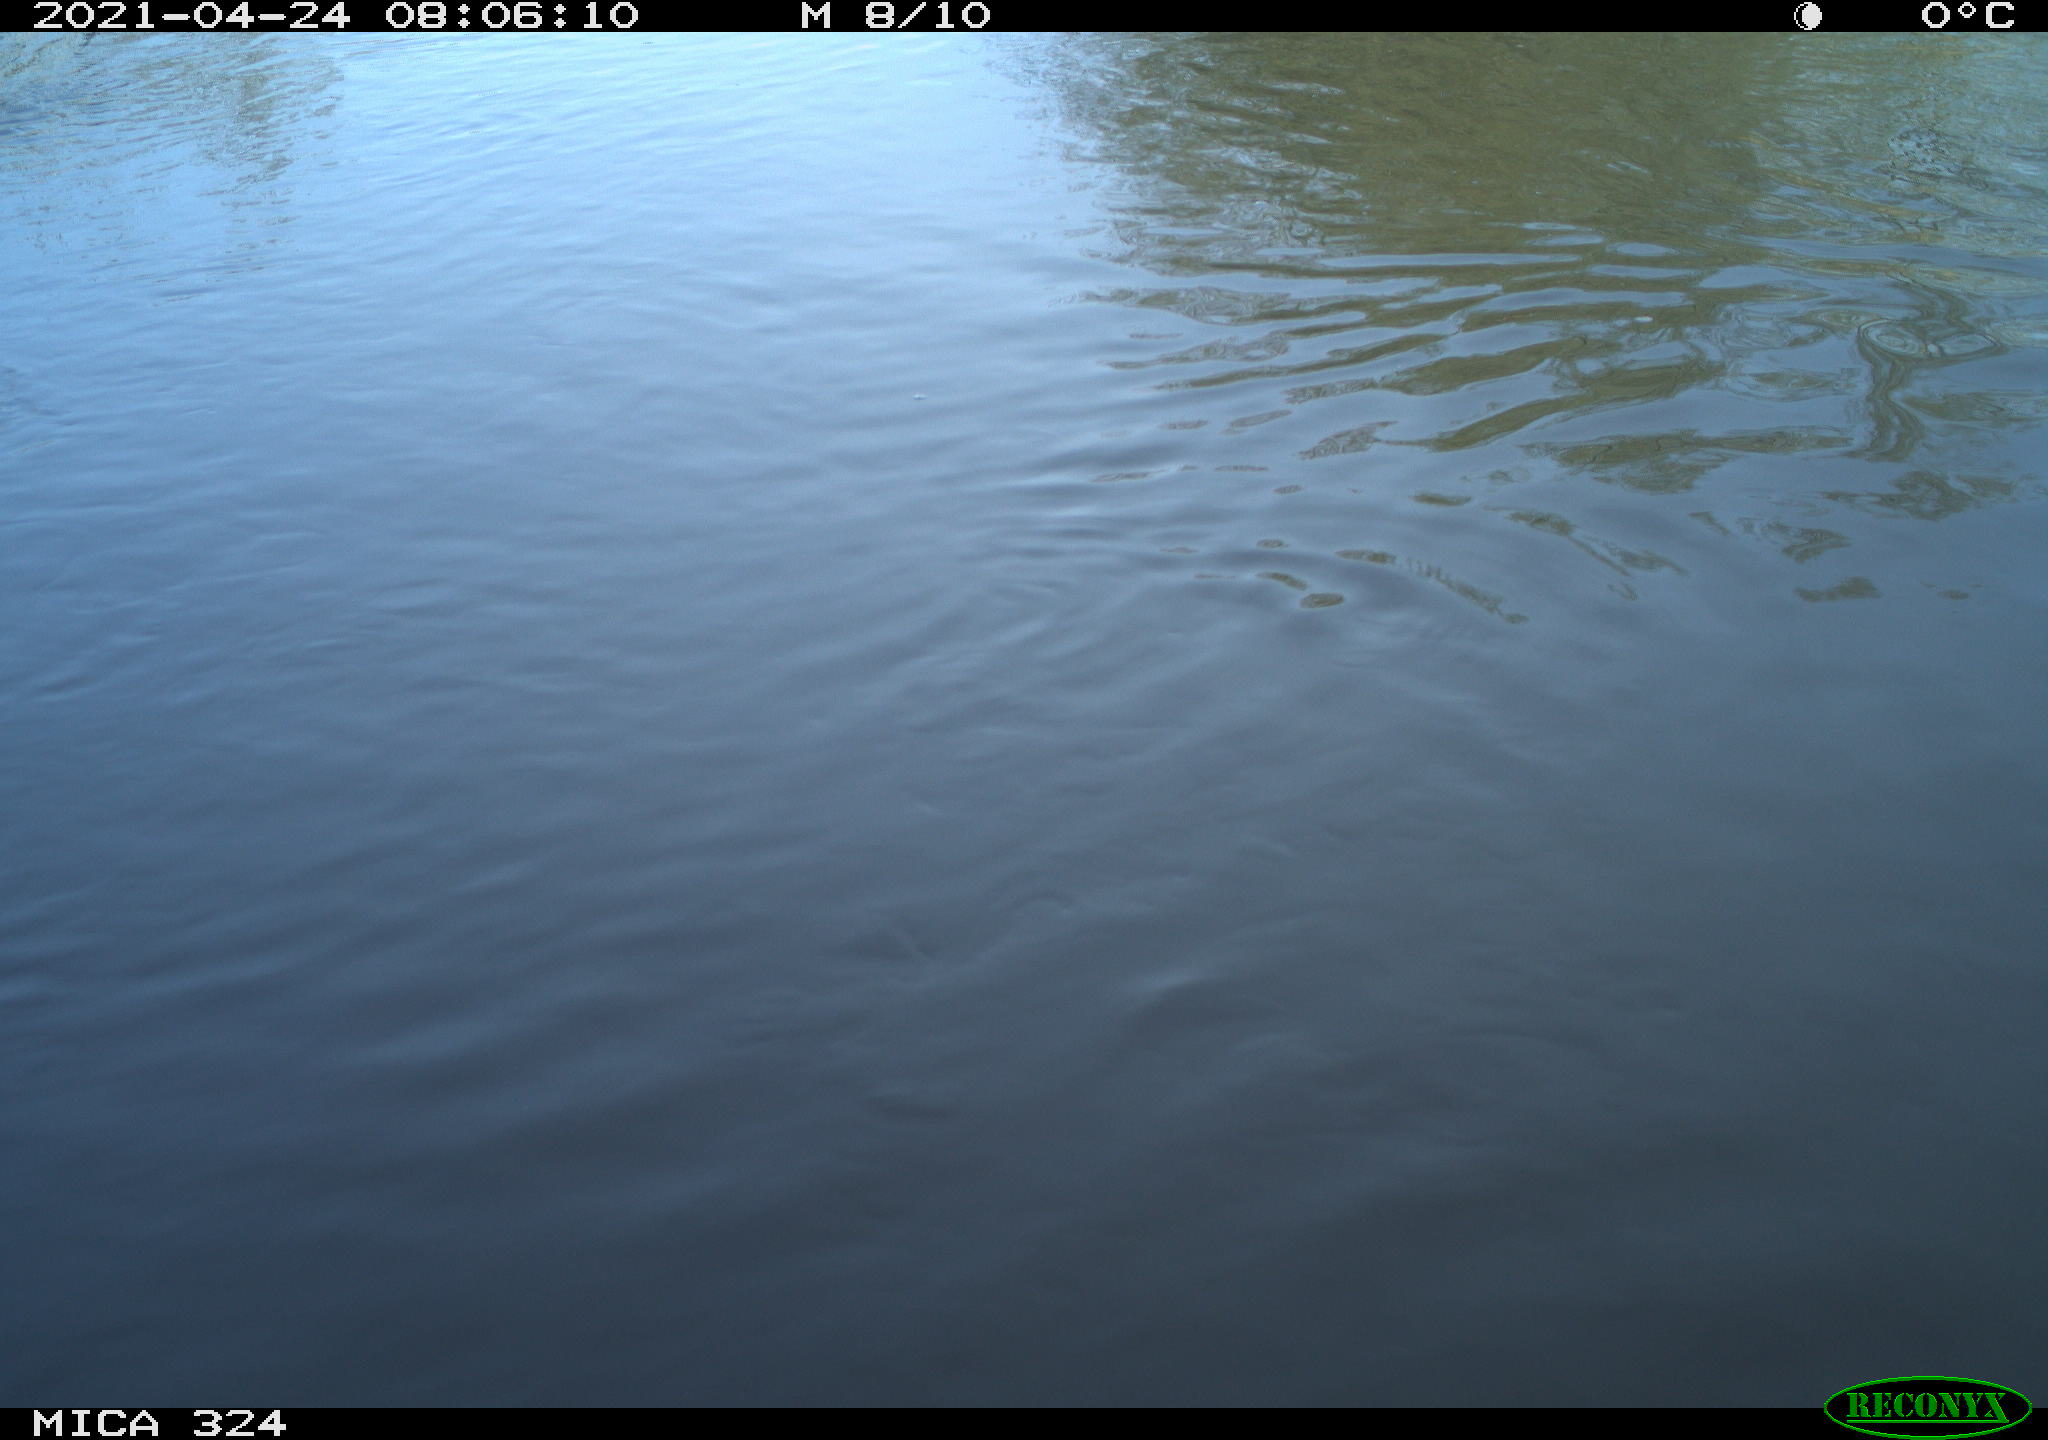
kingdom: Animalia
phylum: Chordata
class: Aves
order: Gruiformes
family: Rallidae
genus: Gallinula
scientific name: Gallinula chloropus
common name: Common moorhen
